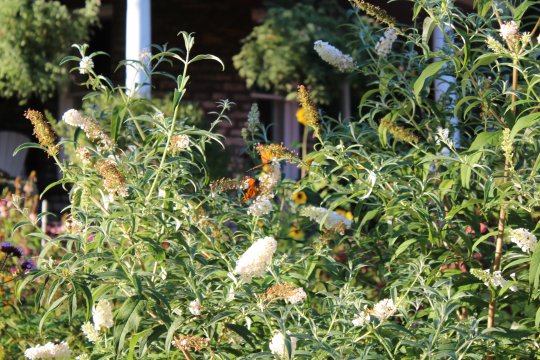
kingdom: Animalia
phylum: Arthropoda
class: Insecta
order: Lepidoptera
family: Nymphalidae
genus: Danaus
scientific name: Danaus plexippus
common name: Monarch
